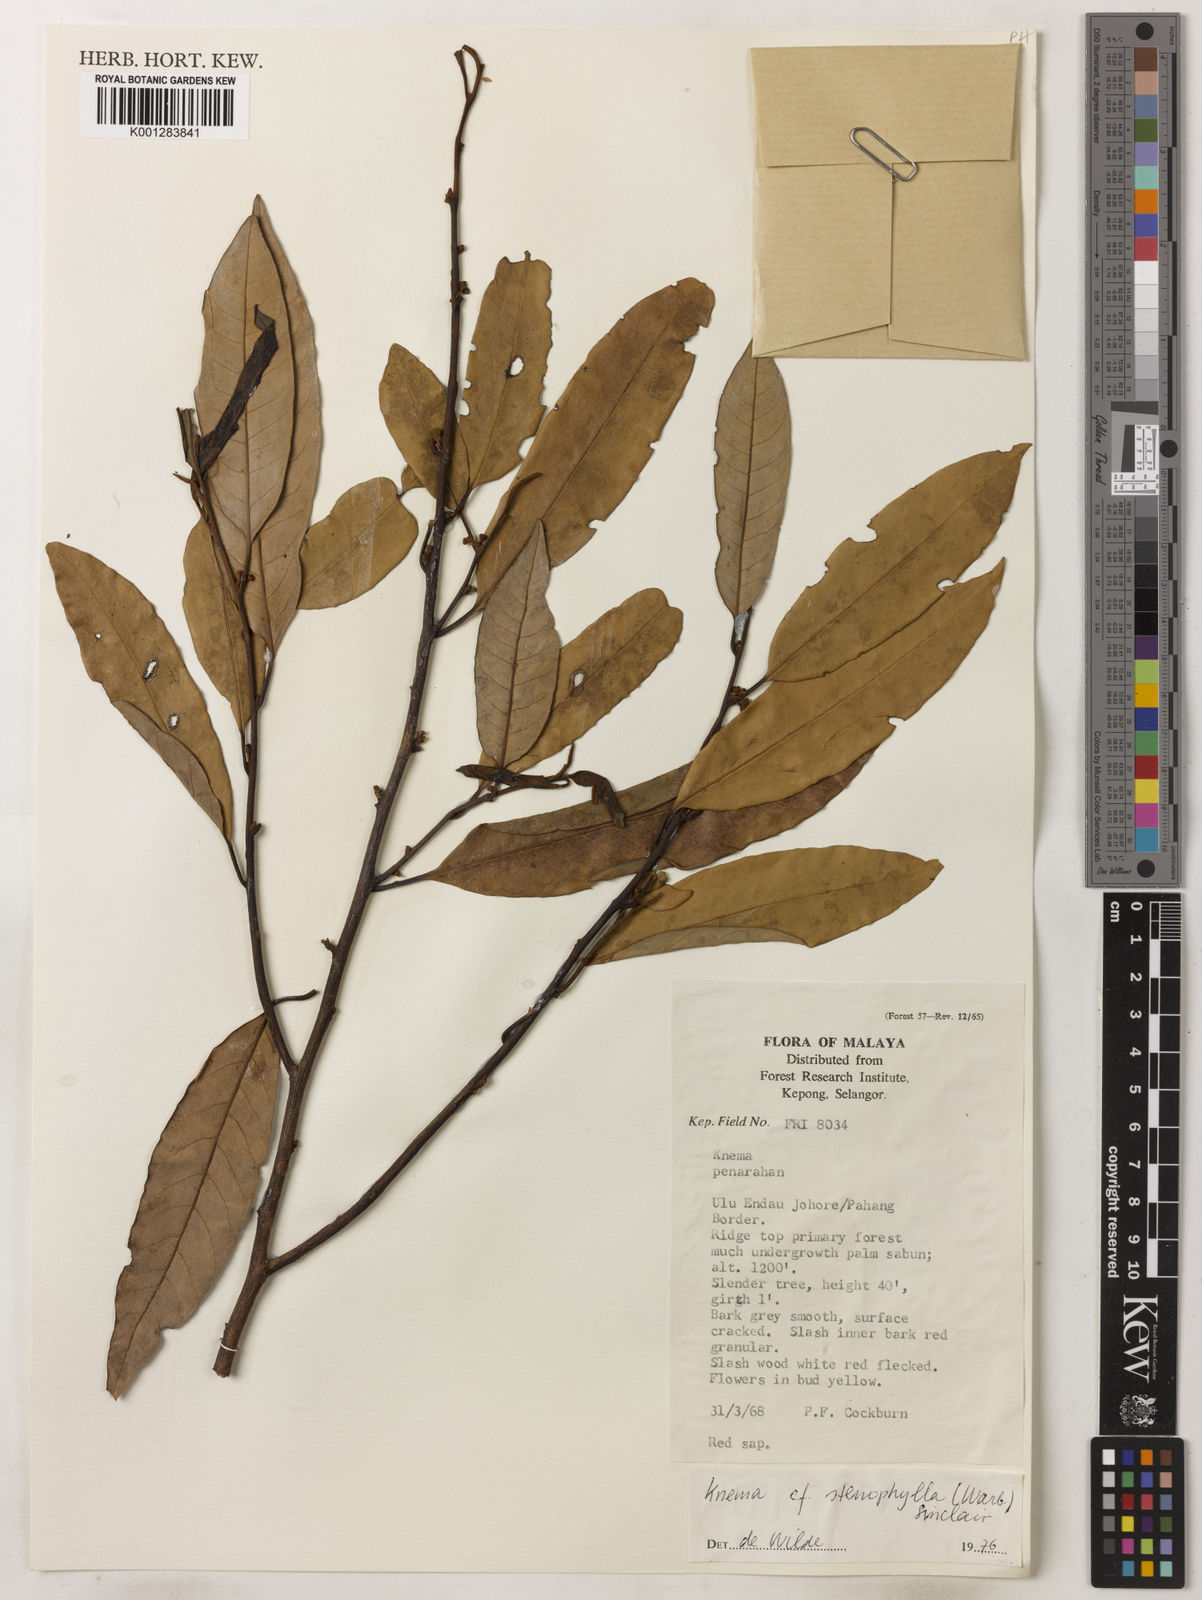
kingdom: Plantae
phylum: Tracheophyta
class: Magnoliopsida
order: Magnoliales
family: Myristicaceae
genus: Knema
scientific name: Knema stenophylla
